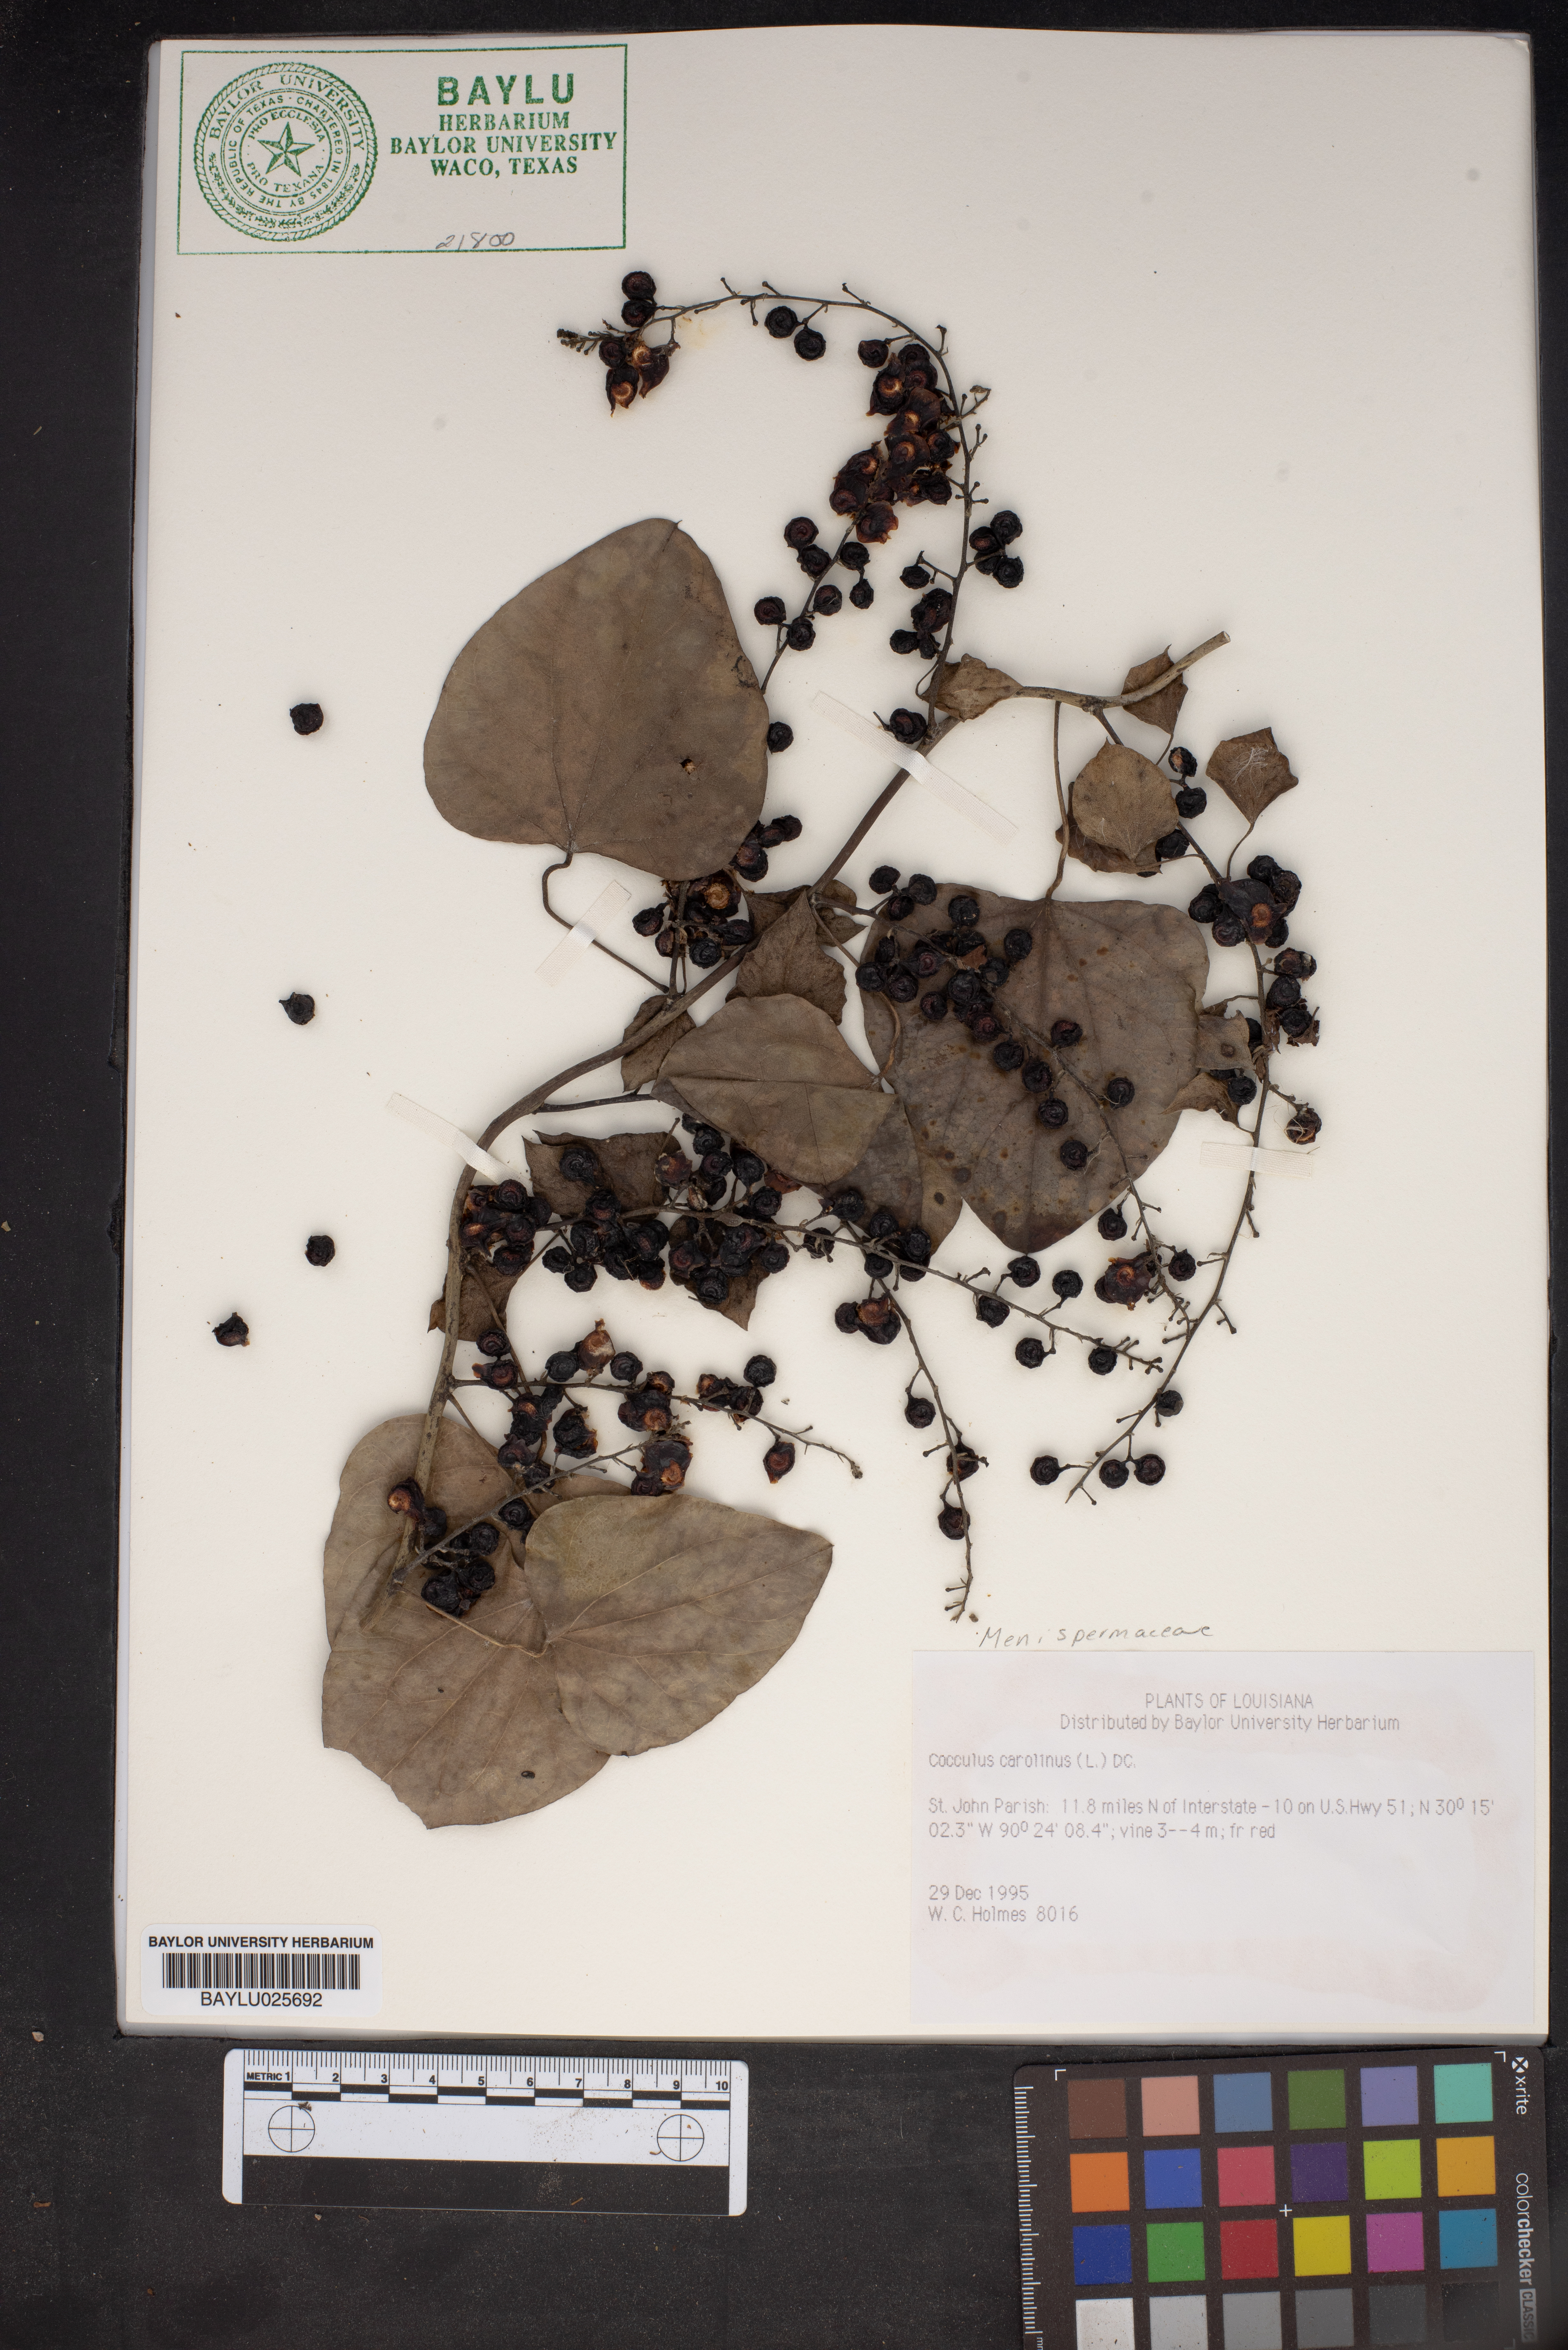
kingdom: Plantae
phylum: Tracheophyta
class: Magnoliopsida
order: Ranunculales
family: Menispermaceae
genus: Cocculus
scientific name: Cocculus carolinus
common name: Carolina moonseed
